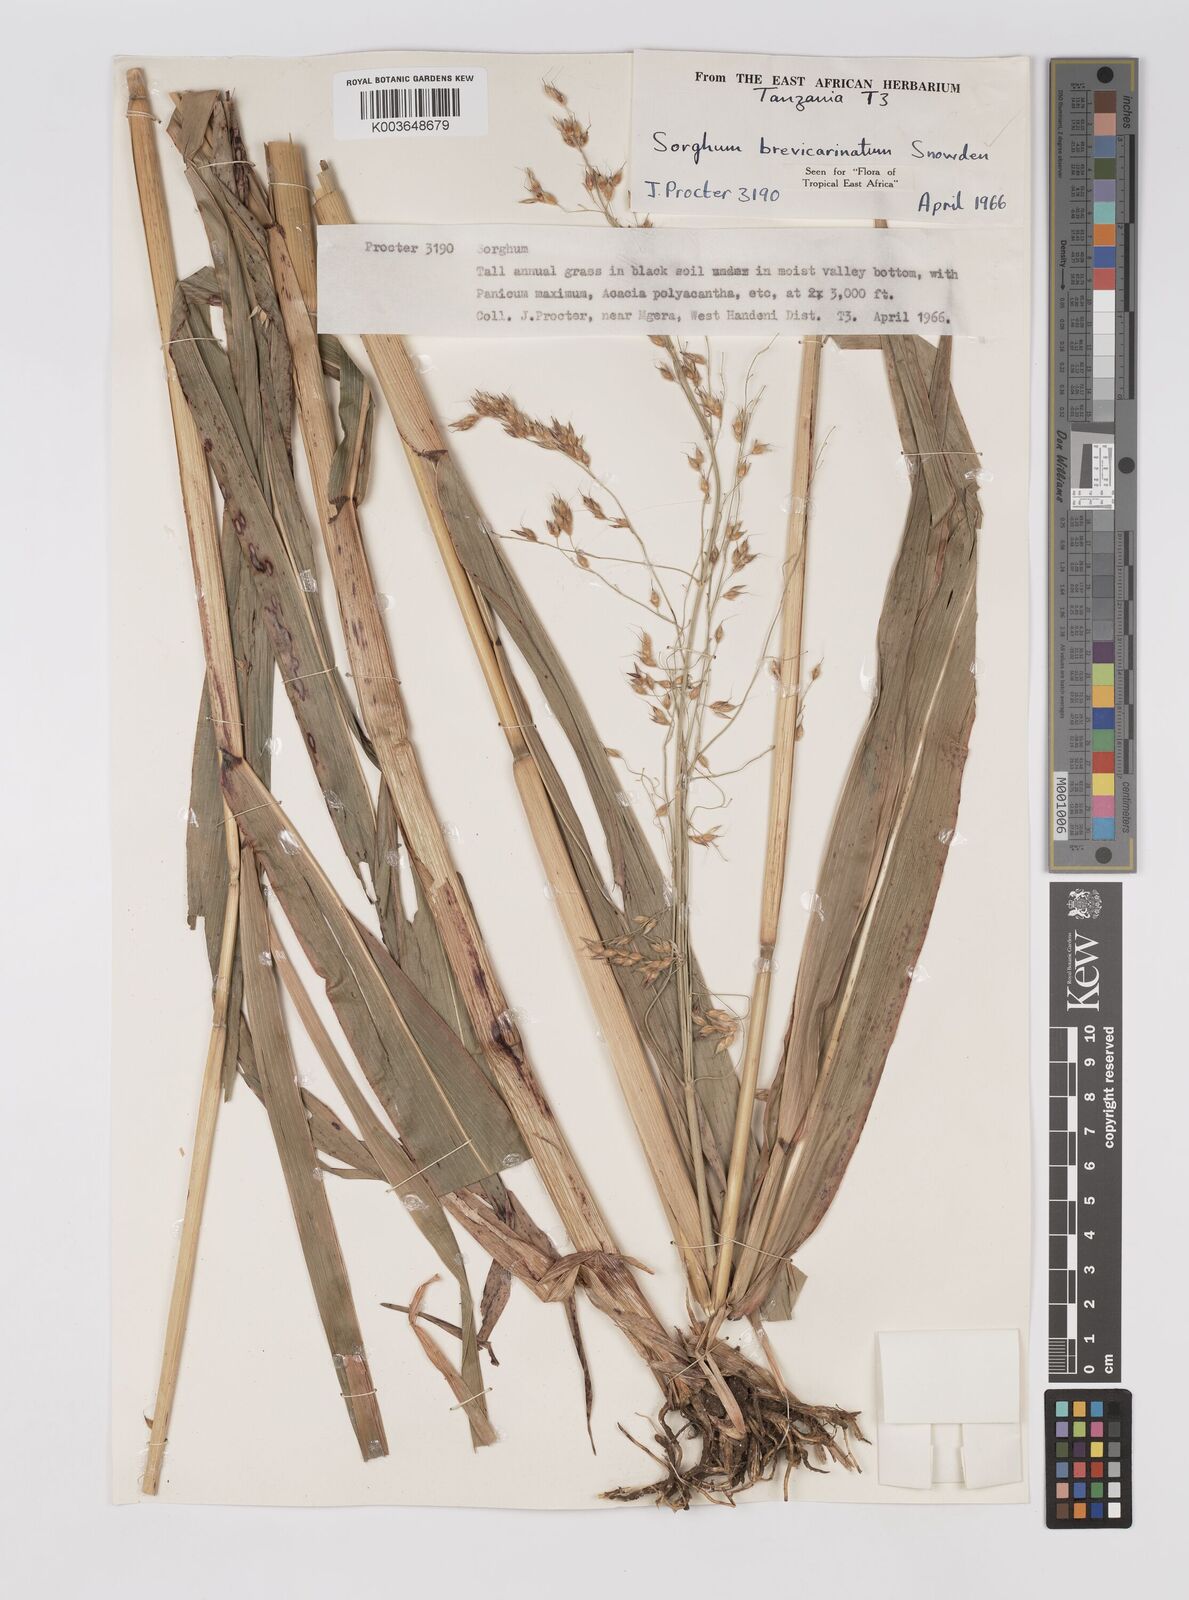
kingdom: Plantae
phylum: Tracheophyta
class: Liliopsida
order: Poales
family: Poaceae
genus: Sorghum
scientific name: Sorghum arundinaceum
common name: Sorghum
